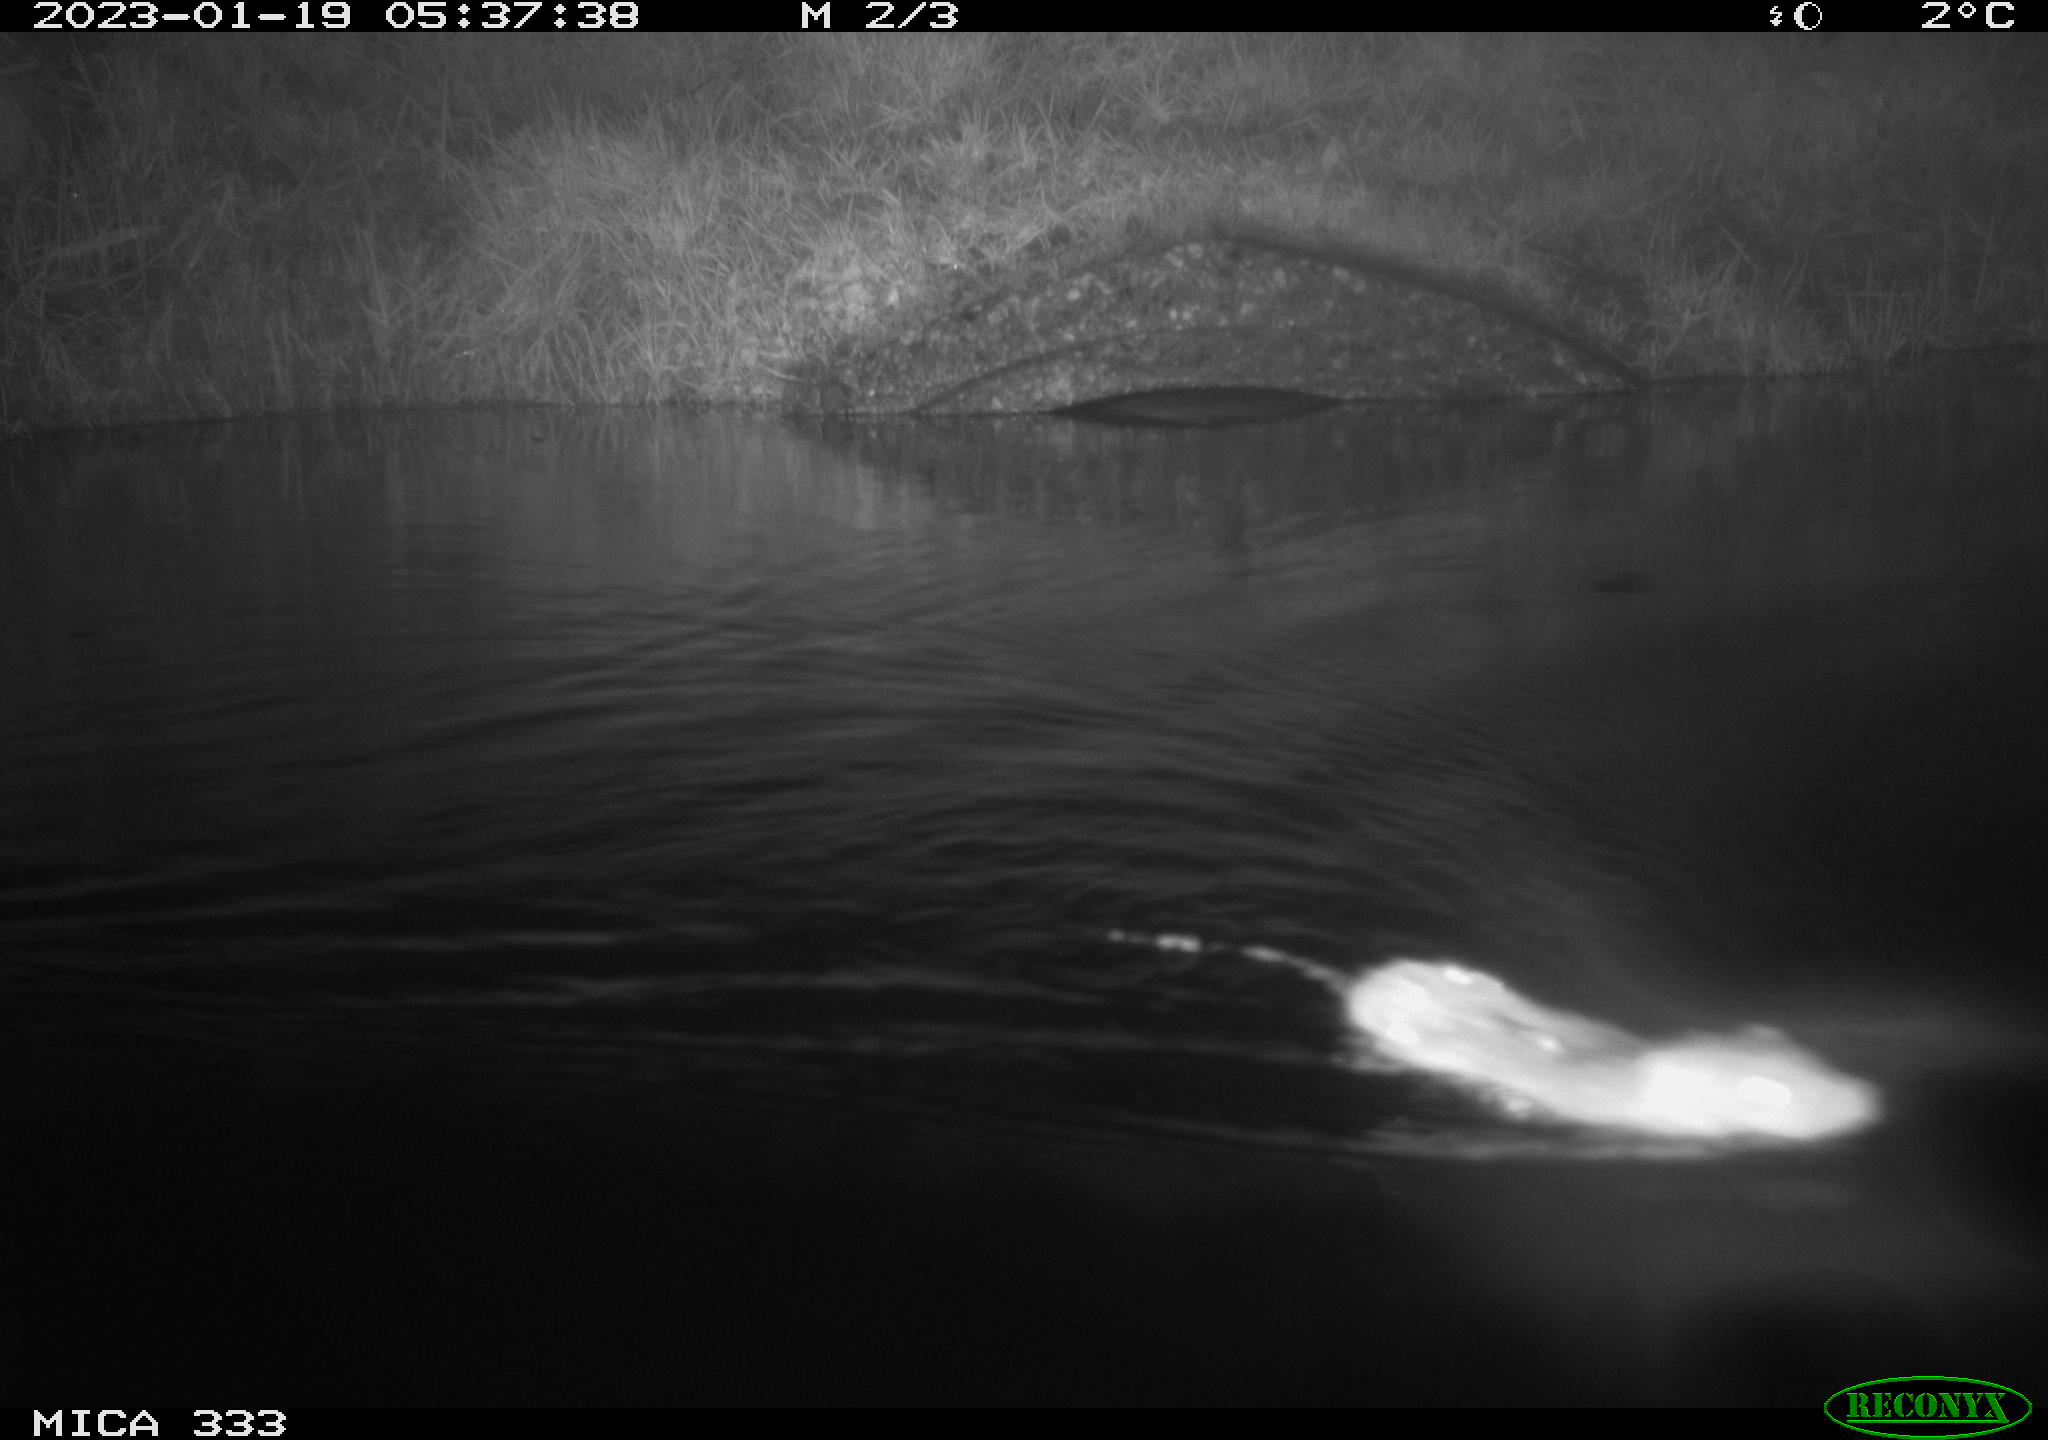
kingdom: Animalia
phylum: Chordata
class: Mammalia
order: Rodentia
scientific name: Rodentia
